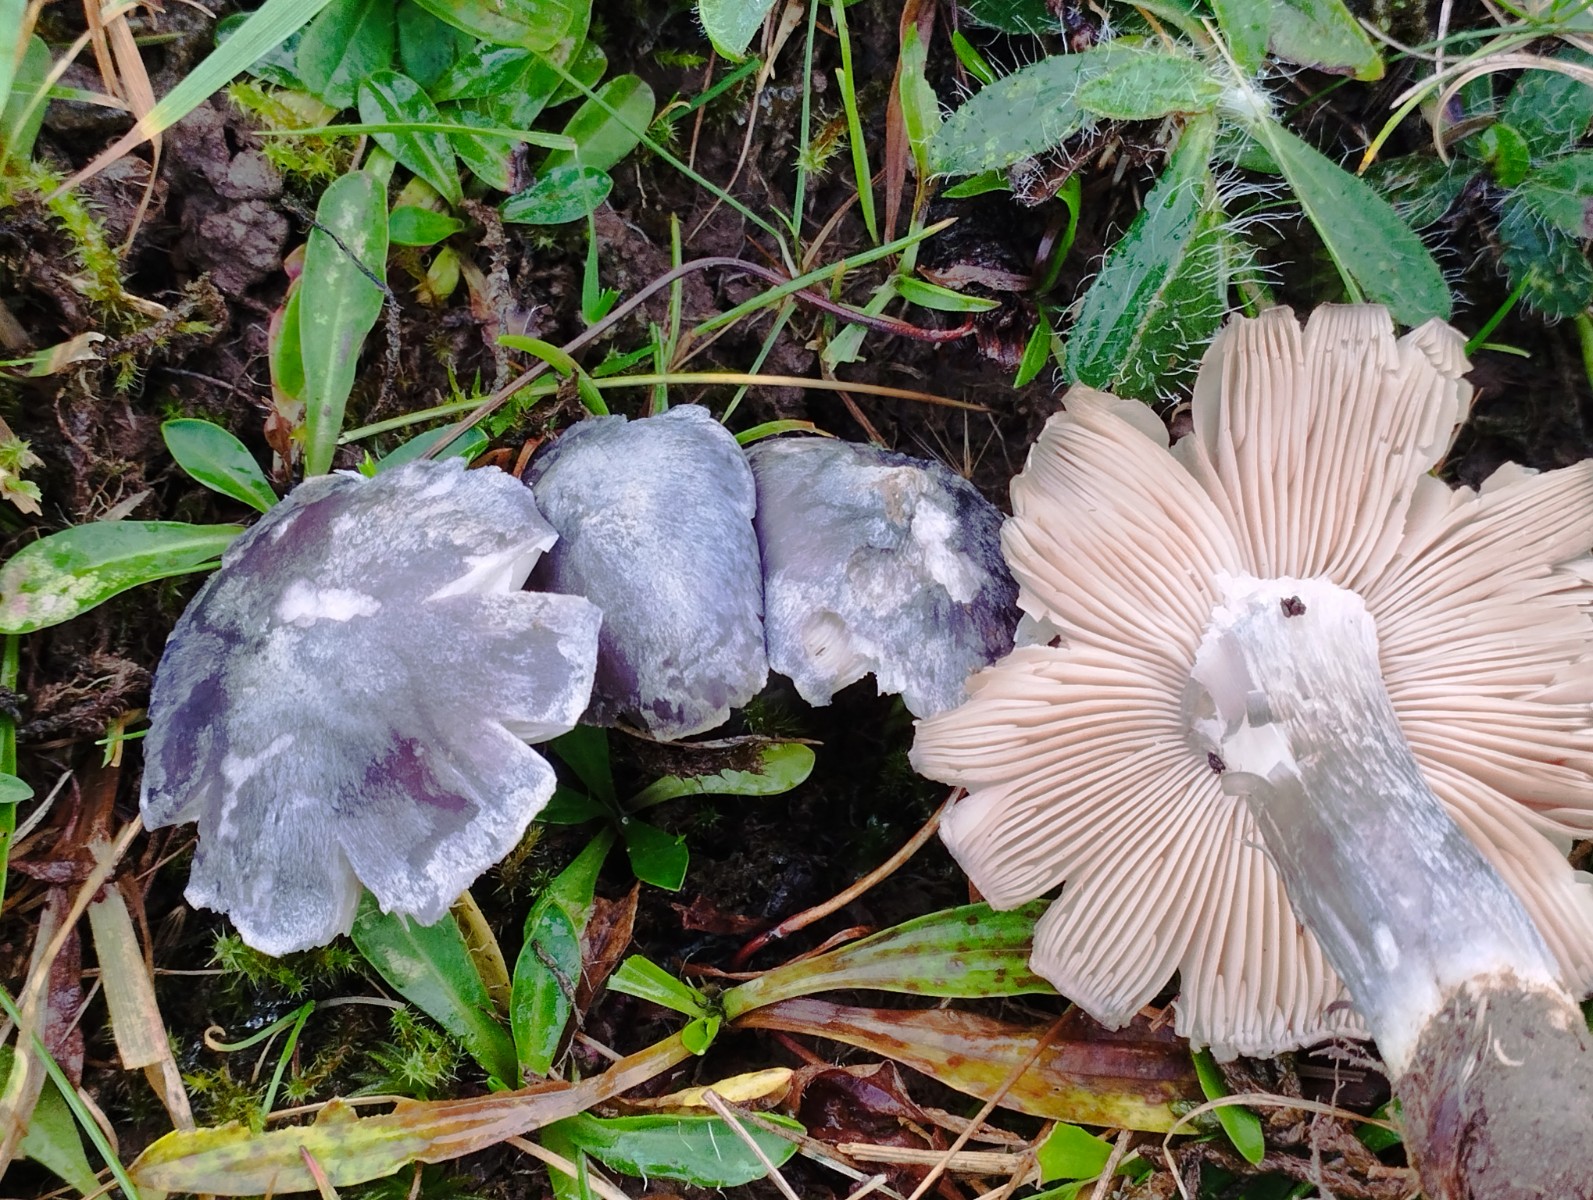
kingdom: Fungi
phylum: Basidiomycota
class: Agaricomycetes
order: Agaricales
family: Entolomataceae
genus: Entoloma
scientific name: Entoloma madidum
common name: indigo-rødblad
